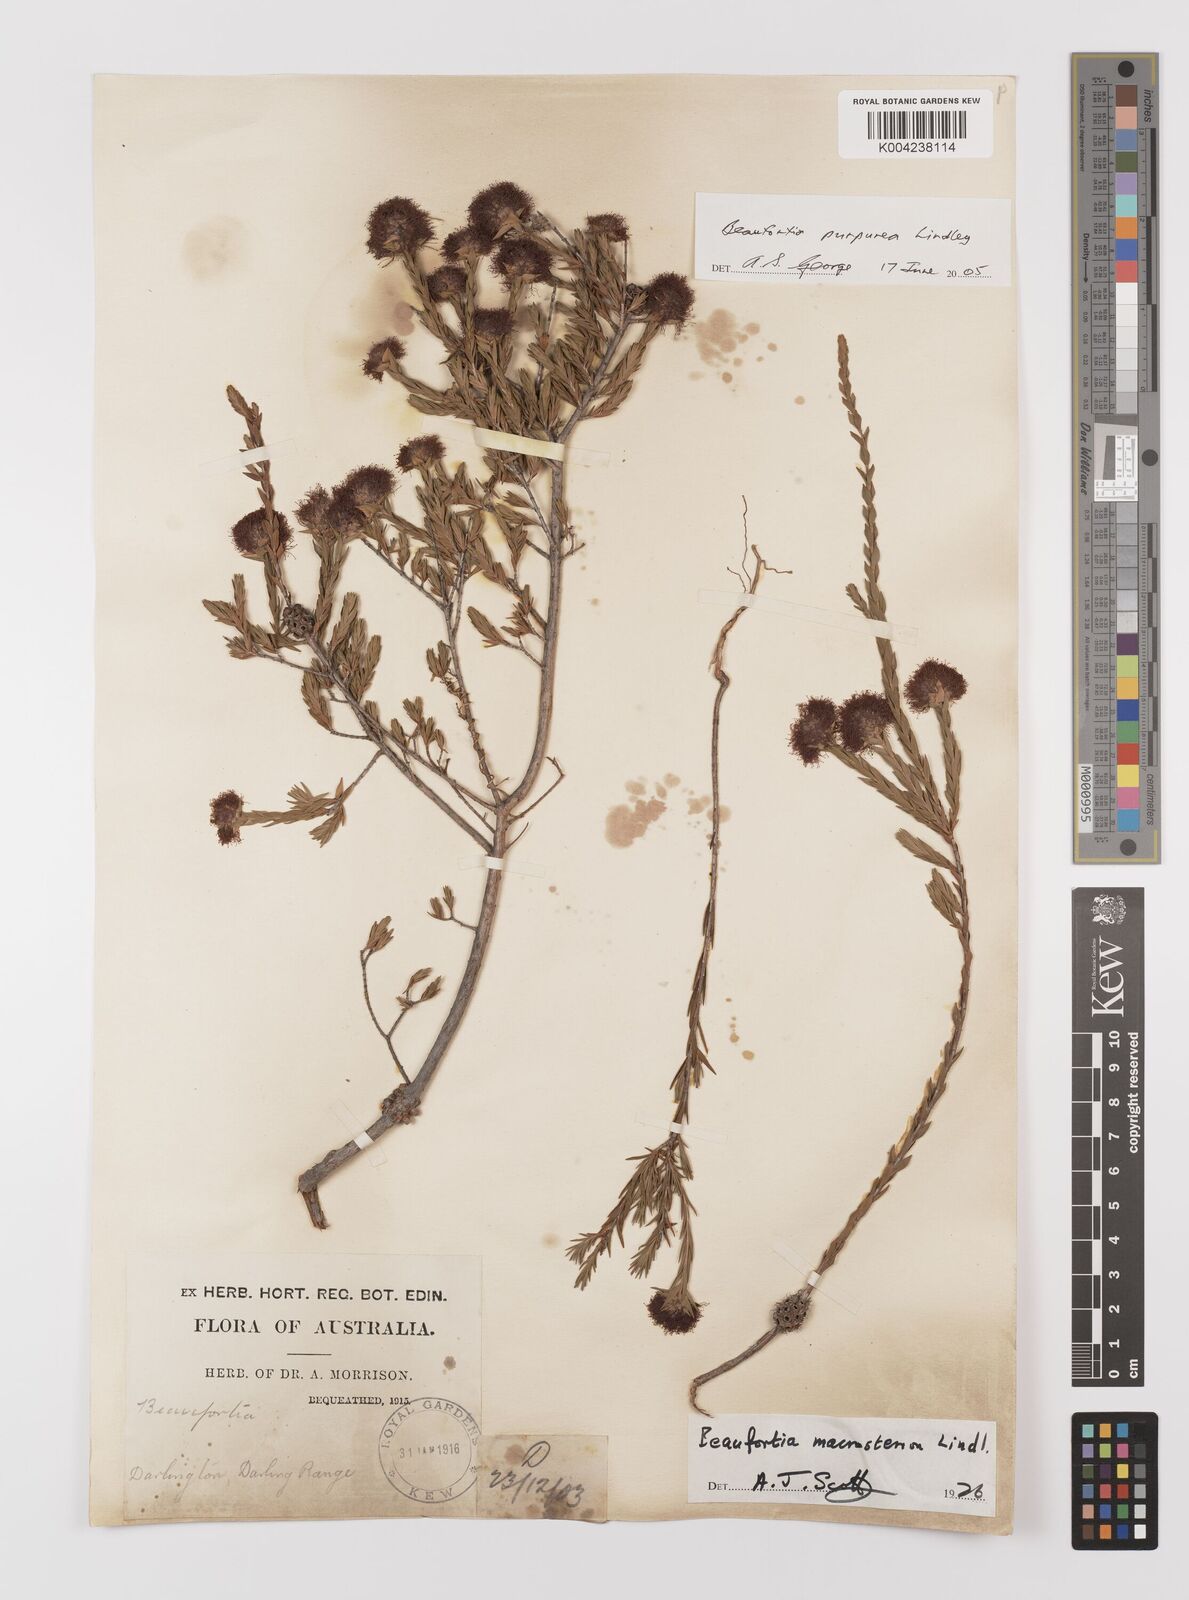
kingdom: Plantae
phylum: Tracheophyta
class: Magnoliopsida
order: Myrtales
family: Myrtaceae
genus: Melaleuca
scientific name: Melaleuca purpurea
